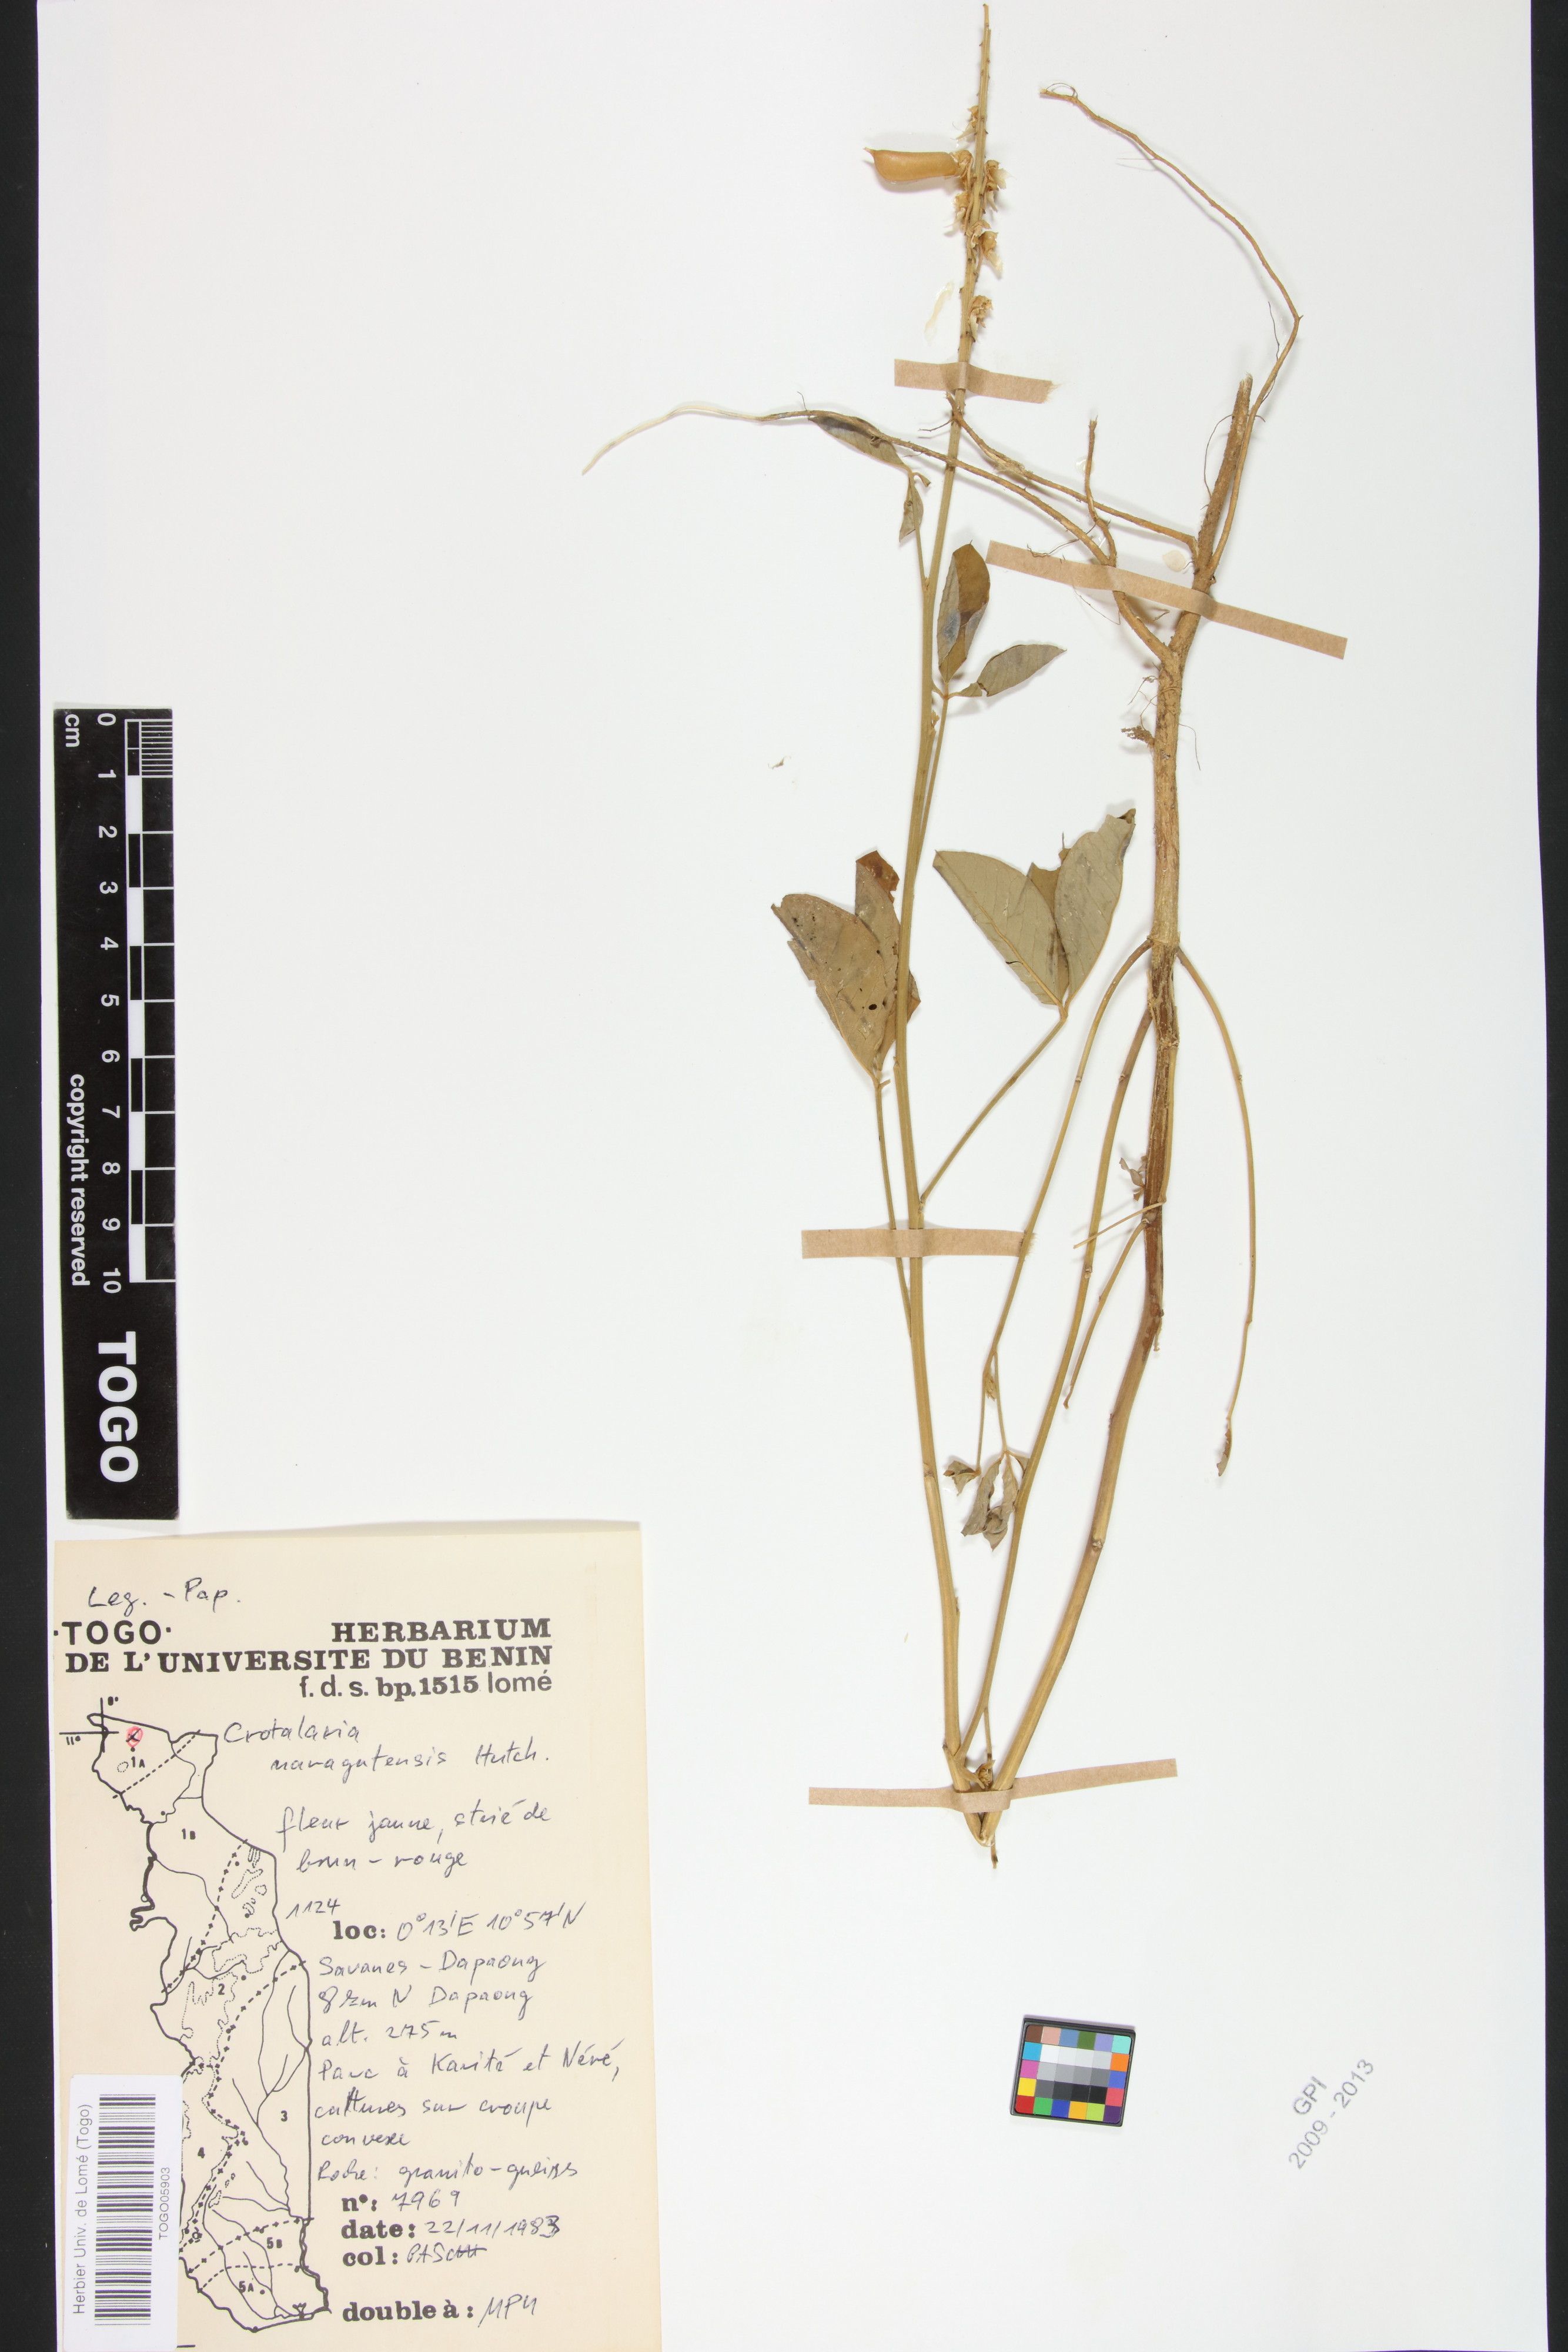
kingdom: Plantae
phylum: Tracheophyta
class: Magnoliopsida
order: Fabales
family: Fabaceae
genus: Crotalaria
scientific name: Crotalaria naragutensis
